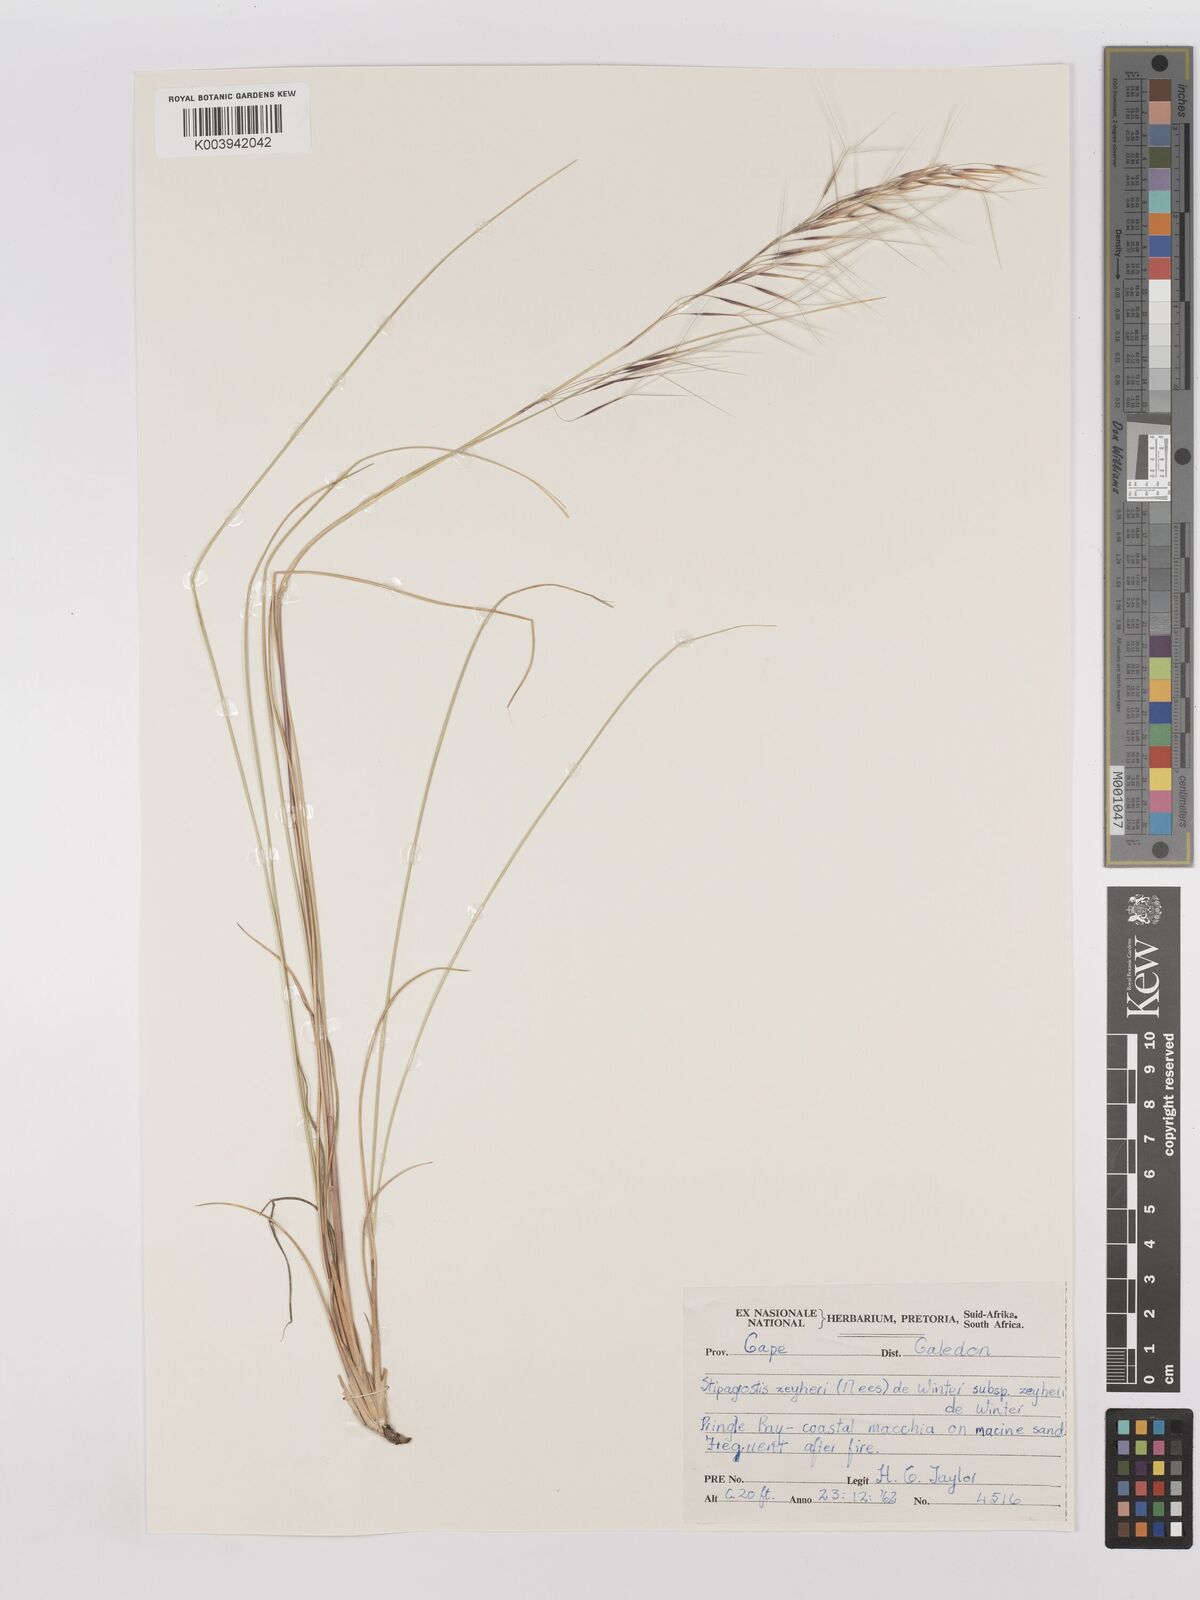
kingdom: Plantae
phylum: Tracheophyta
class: Liliopsida
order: Poales
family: Poaceae
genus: Stipagrostis
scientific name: Stipagrostis zeyheri
